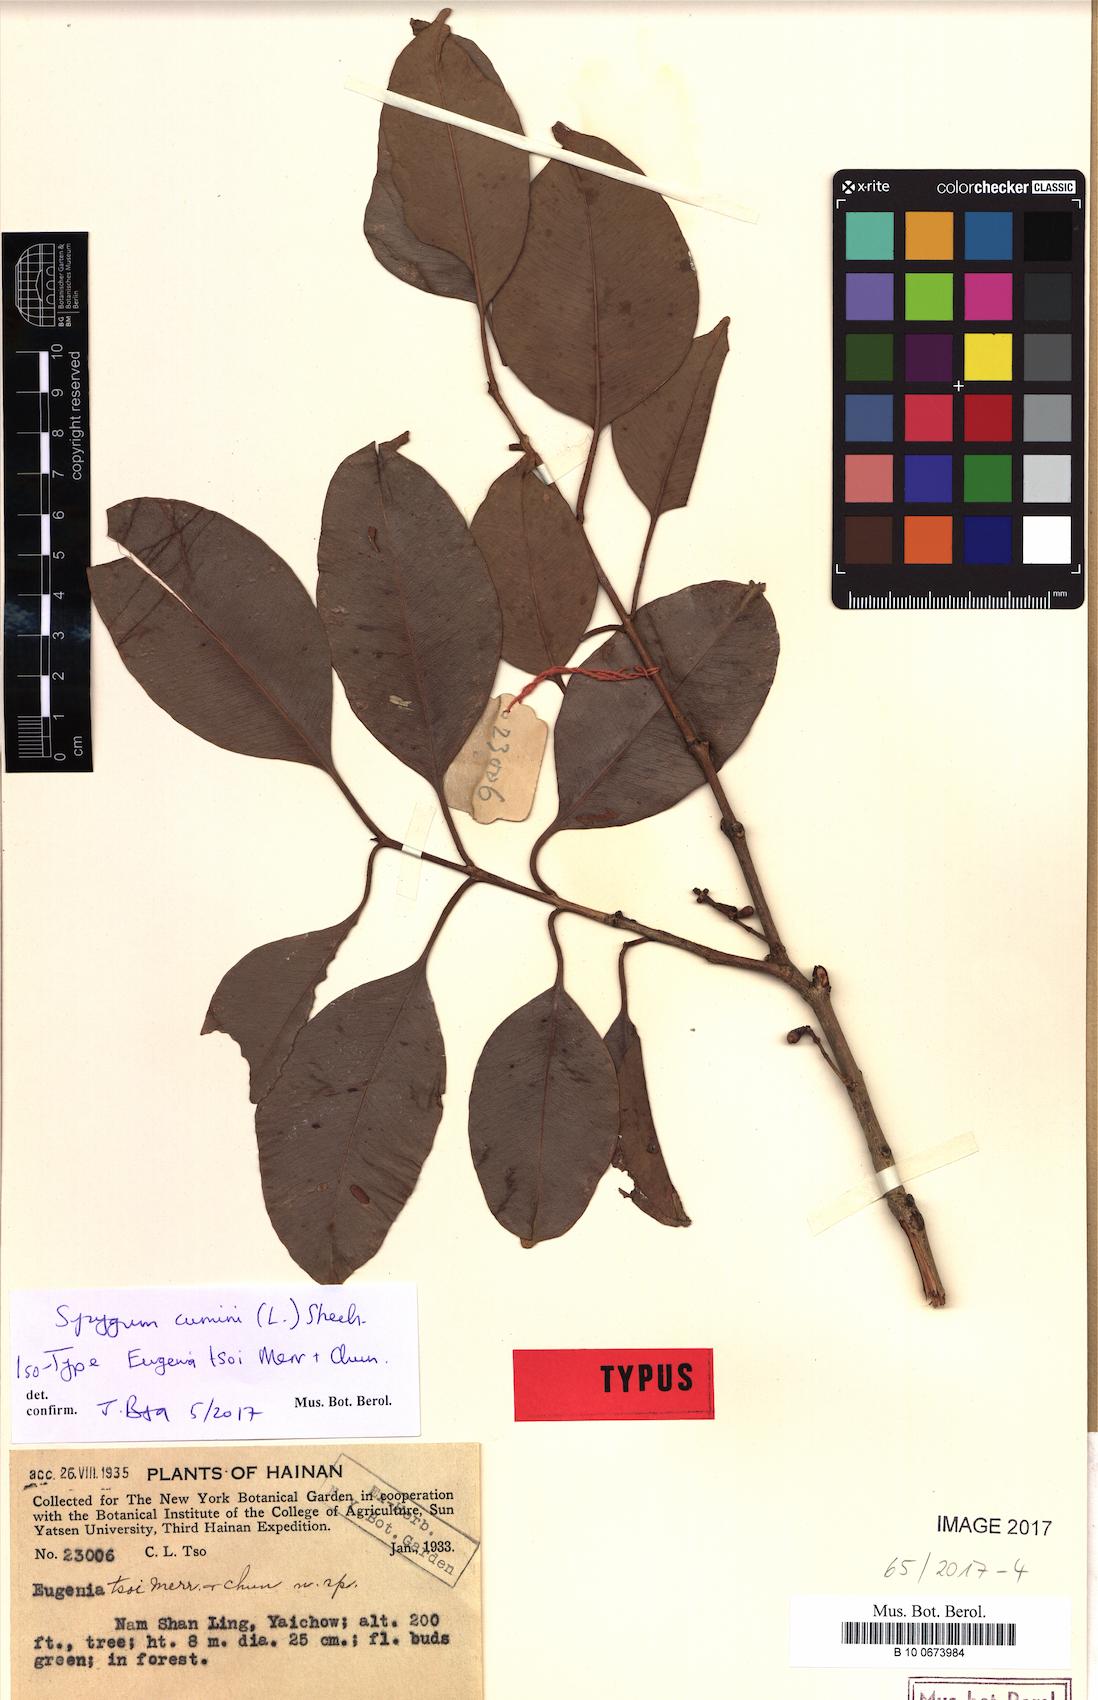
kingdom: Plantae
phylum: Tracheophyta
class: Magnoliopsida
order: Myrtales
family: Myrtaceae
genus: Syzygium
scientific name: Syzygium cumini
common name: Java plum
